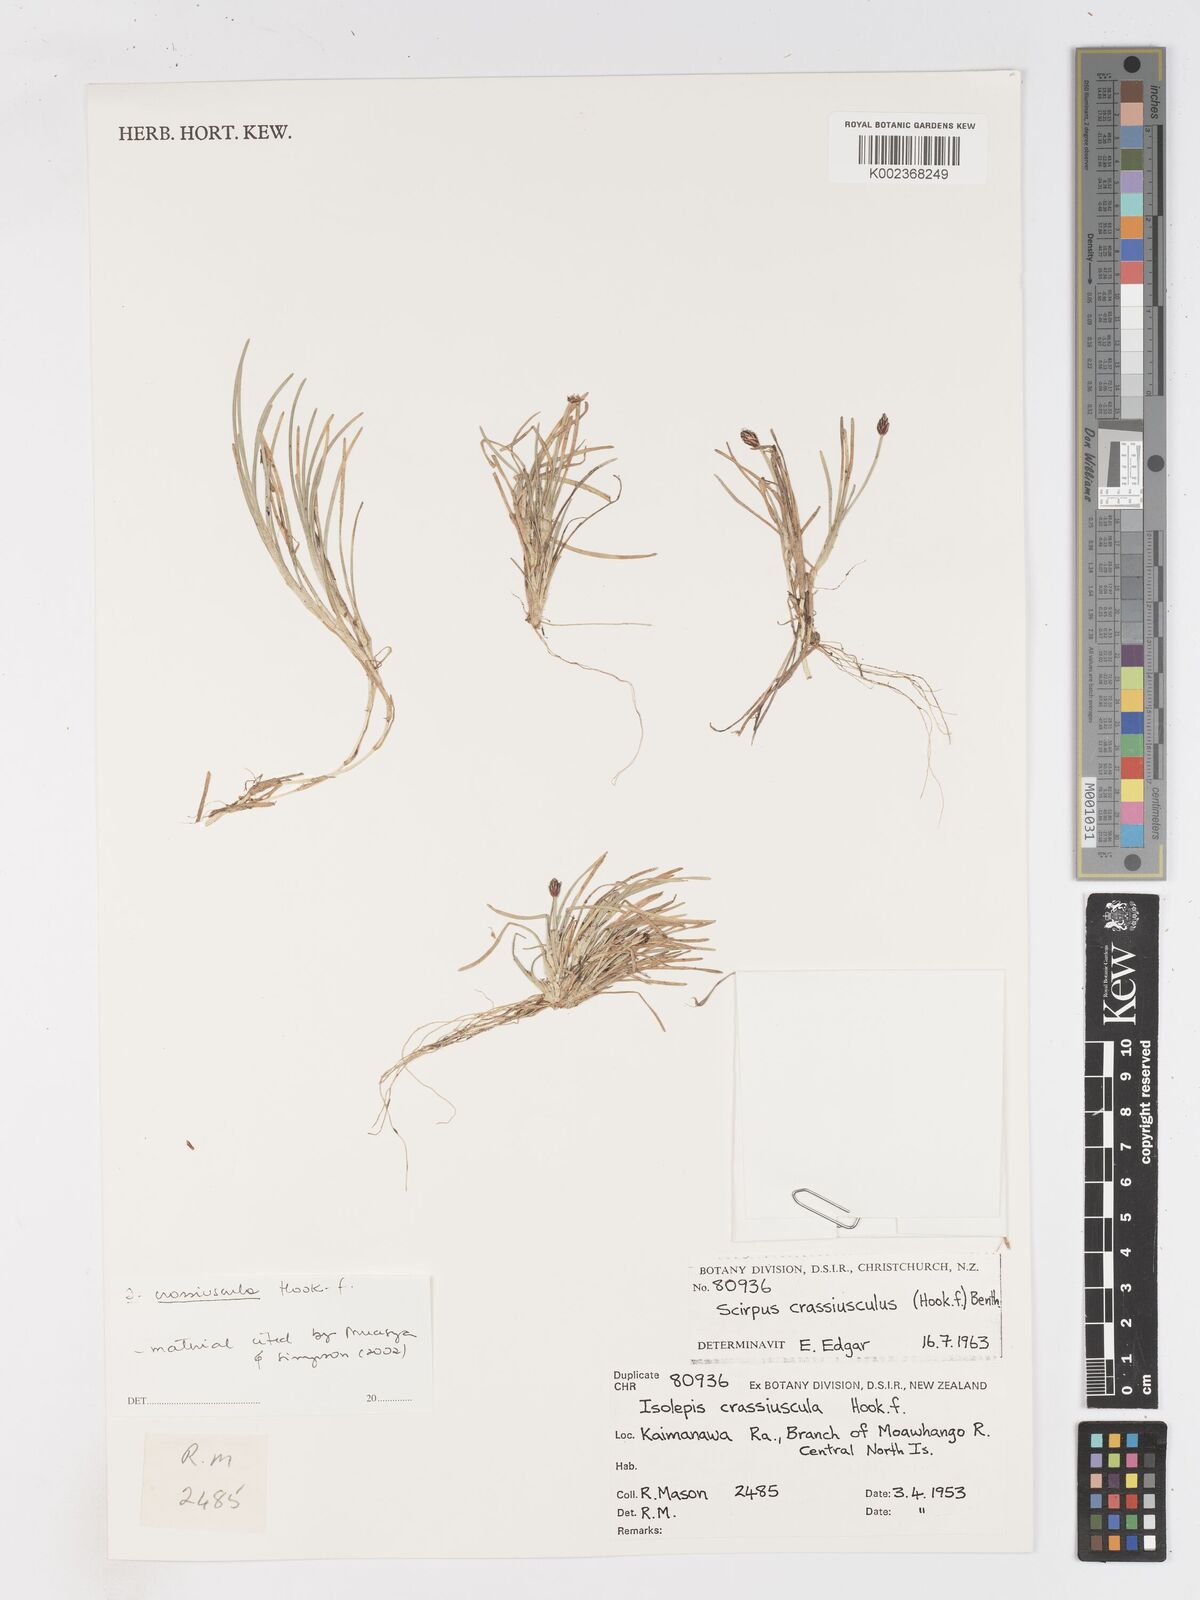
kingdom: Plantae
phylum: Tracheophyta
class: Liliopsida
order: Poales
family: Cyperaceae
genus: Isolepis
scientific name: Isolepis crassiuscula
